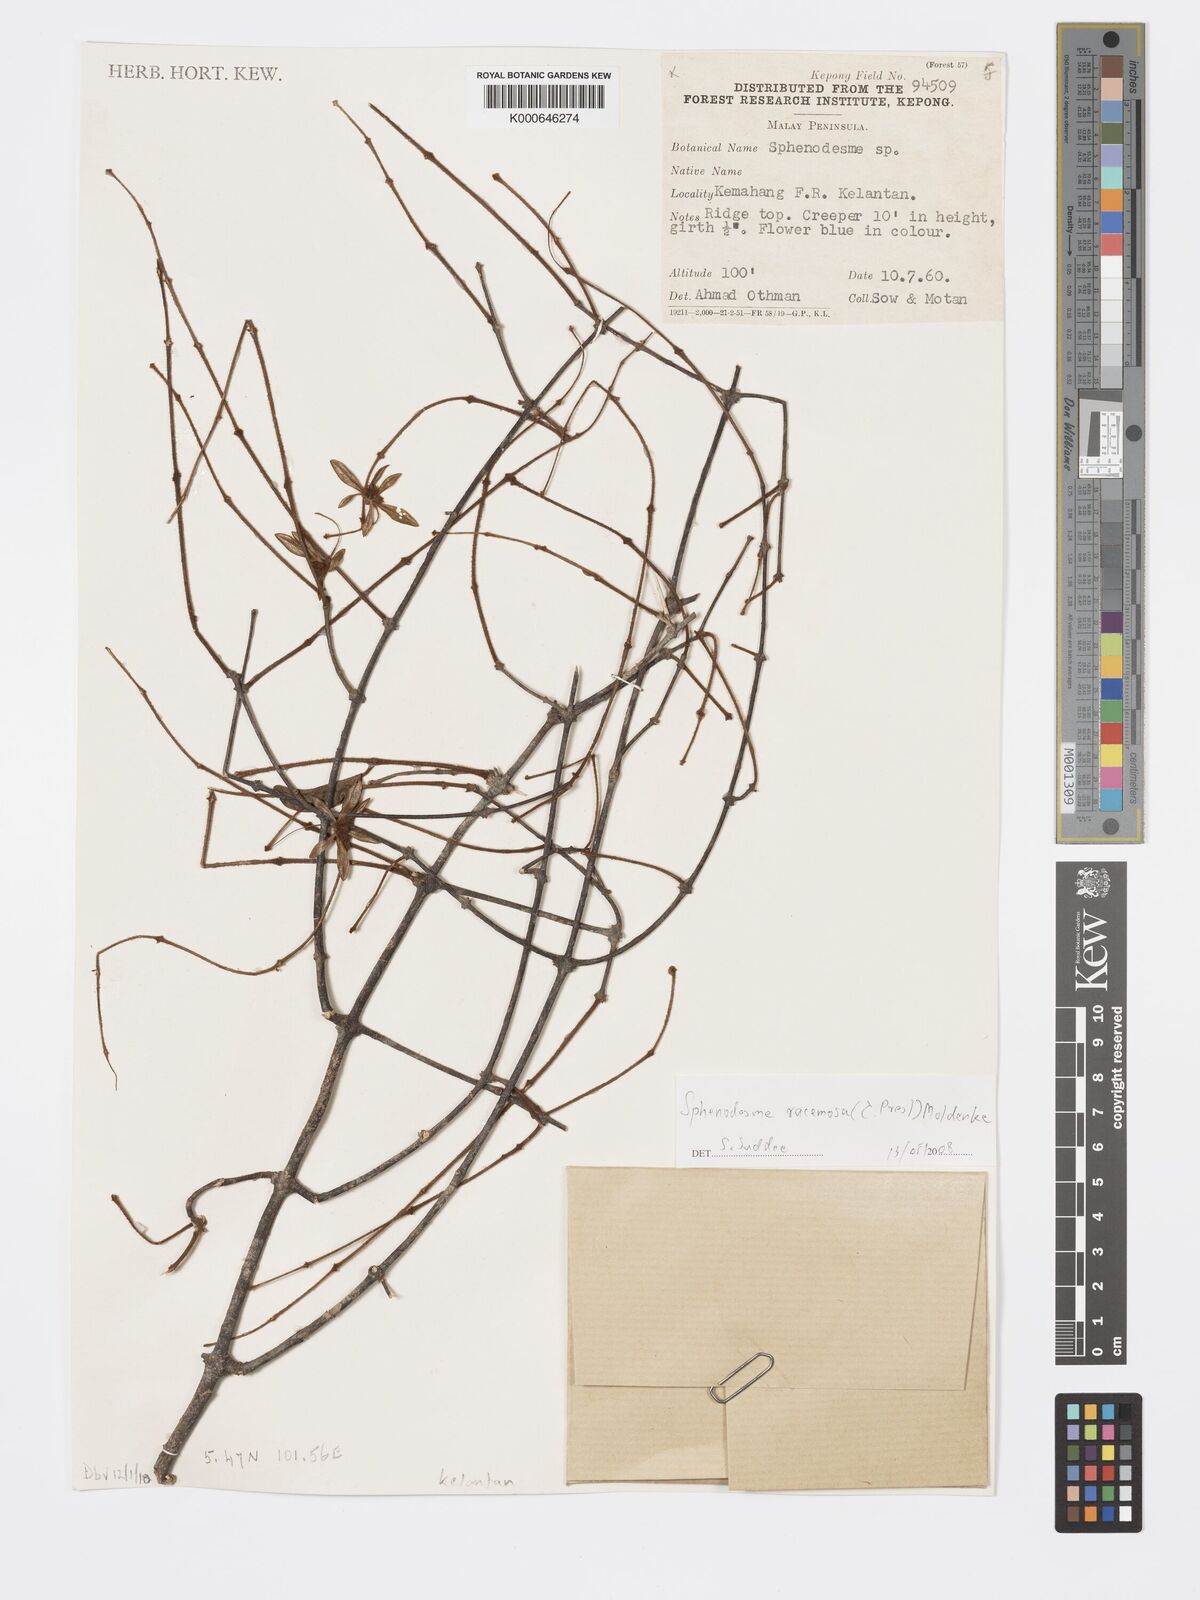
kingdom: Plantae
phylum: Tracheophyta
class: Magnoliopsida
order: Lamiales
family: Lamiaceae
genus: Sphenodesme
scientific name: Sphenodesme racemosa
